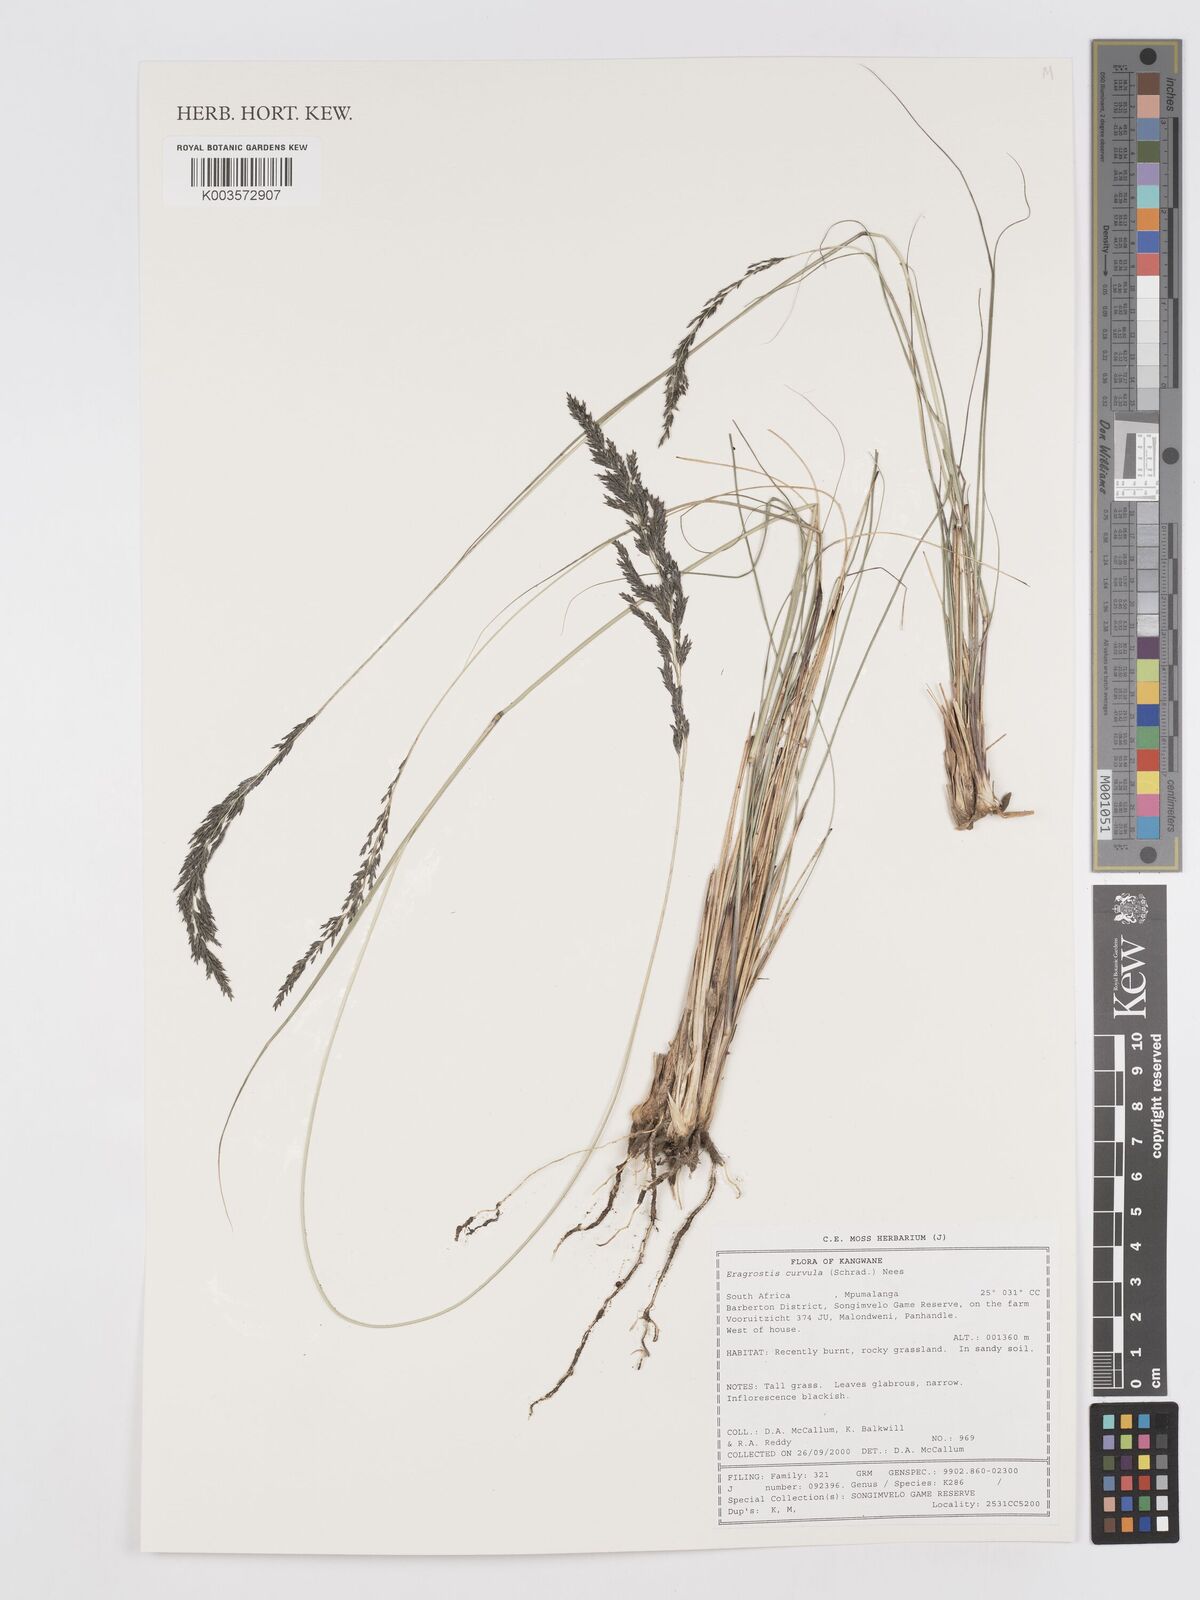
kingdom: Plantae
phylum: Tracheophyta
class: Liliopsida
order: Poales
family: Poaceae
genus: Eragrostis
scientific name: Eragrostis curvula
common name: African love-grass
